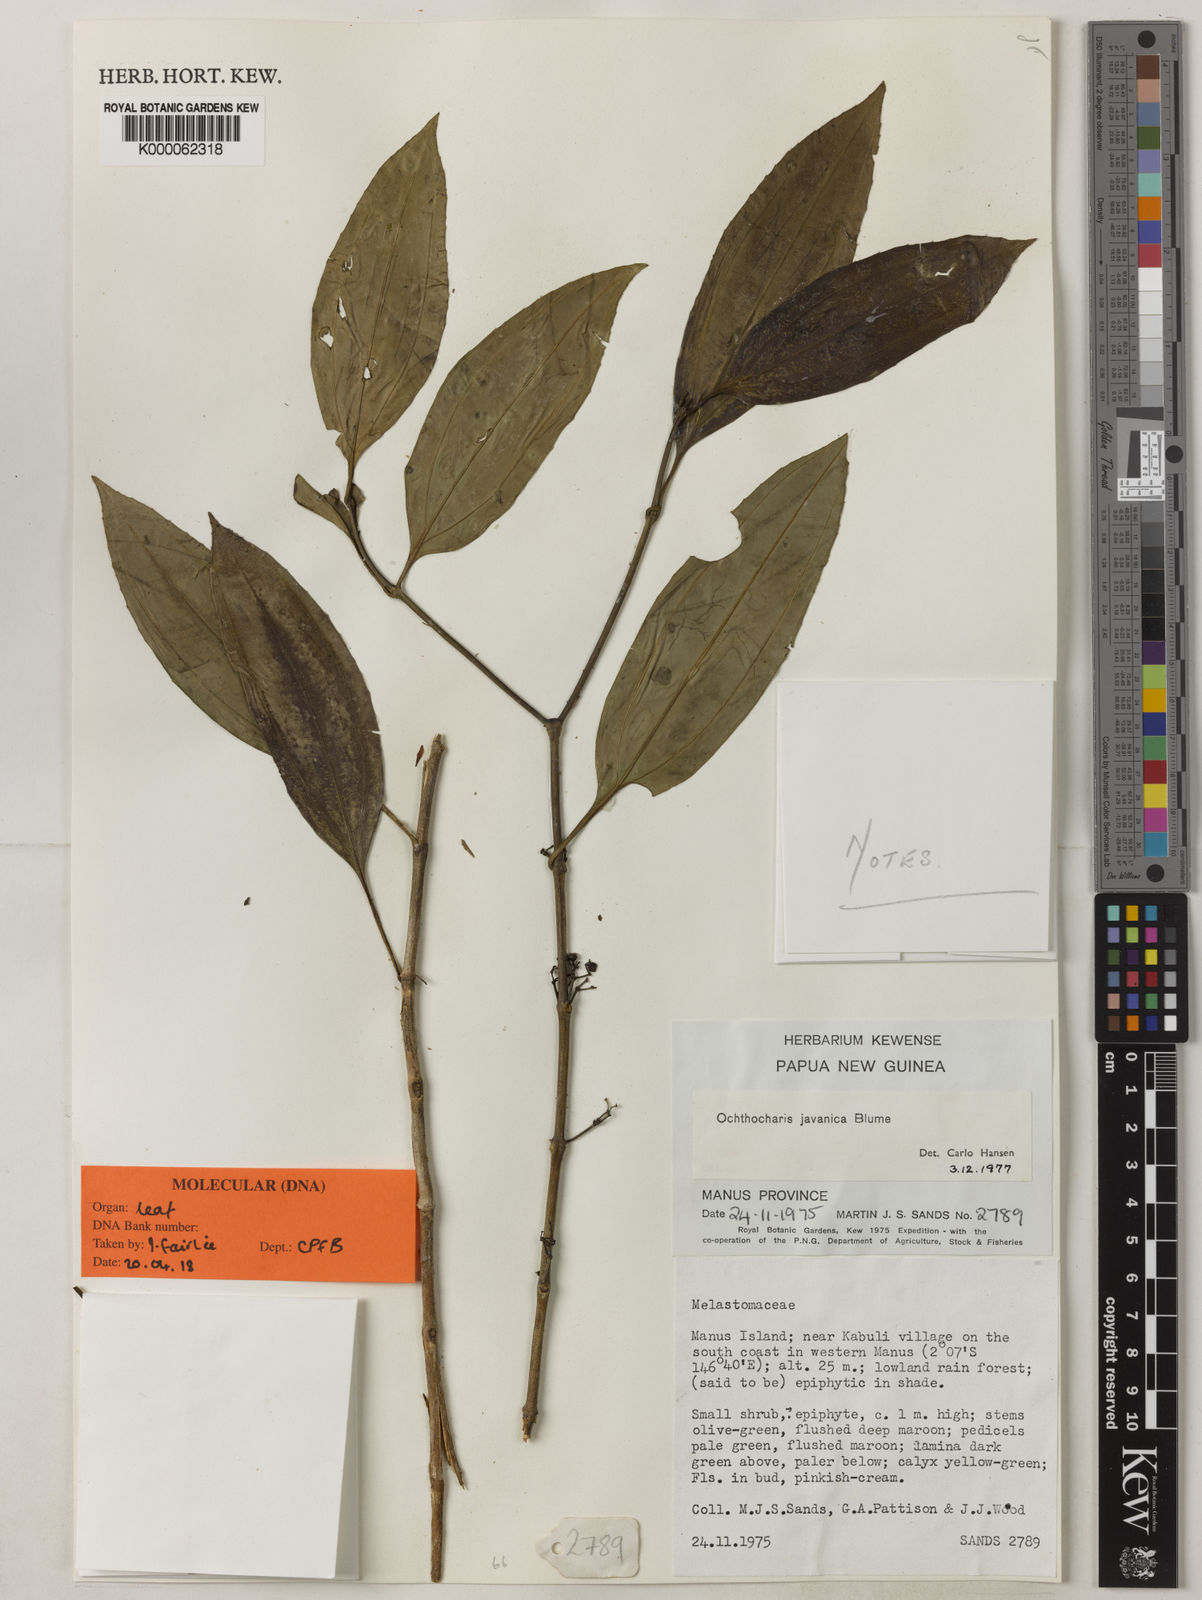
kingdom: Plantae
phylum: Tracheophyta
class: Magnoliopsida
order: Myrtales
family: Melastomataceae
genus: Ochthocharis
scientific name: Ochthocharis javanica
